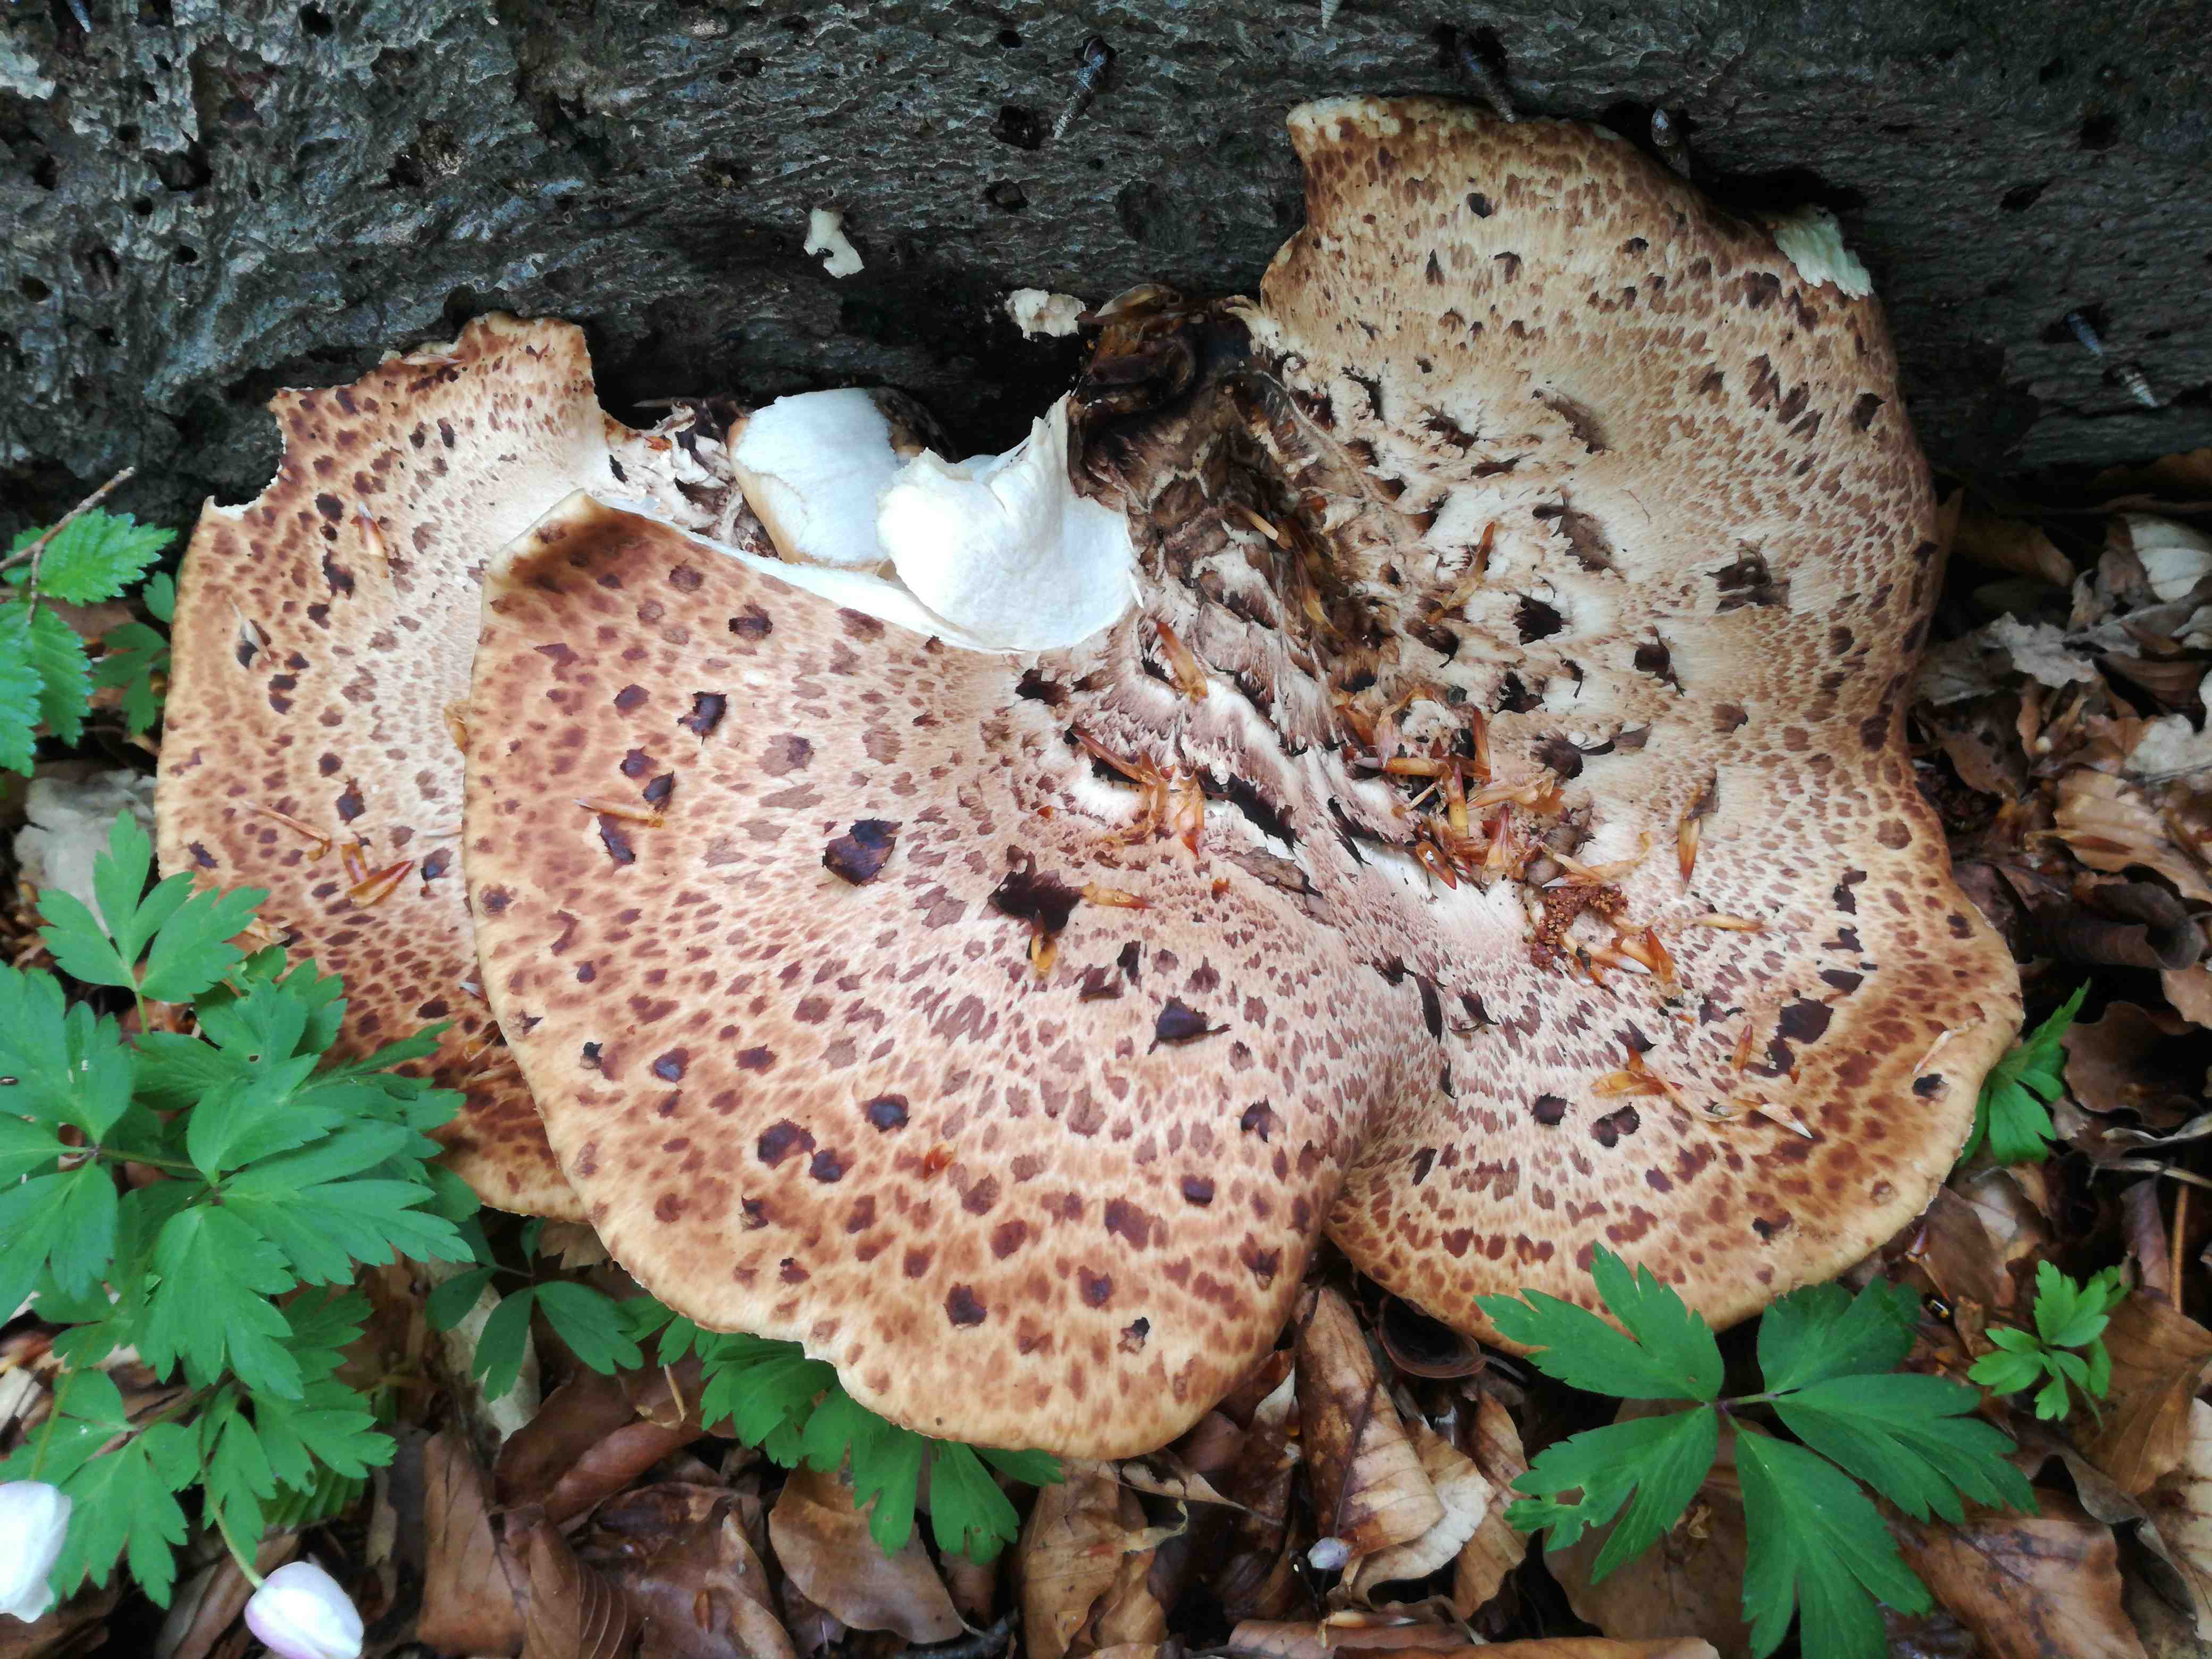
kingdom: Fungi
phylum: Basidiomycota
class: Agaricomycetes
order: Polyporales
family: Polyporaceae
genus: Cerioporus
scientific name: Cerioporus squamosus
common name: skællet stilkporesvamp
